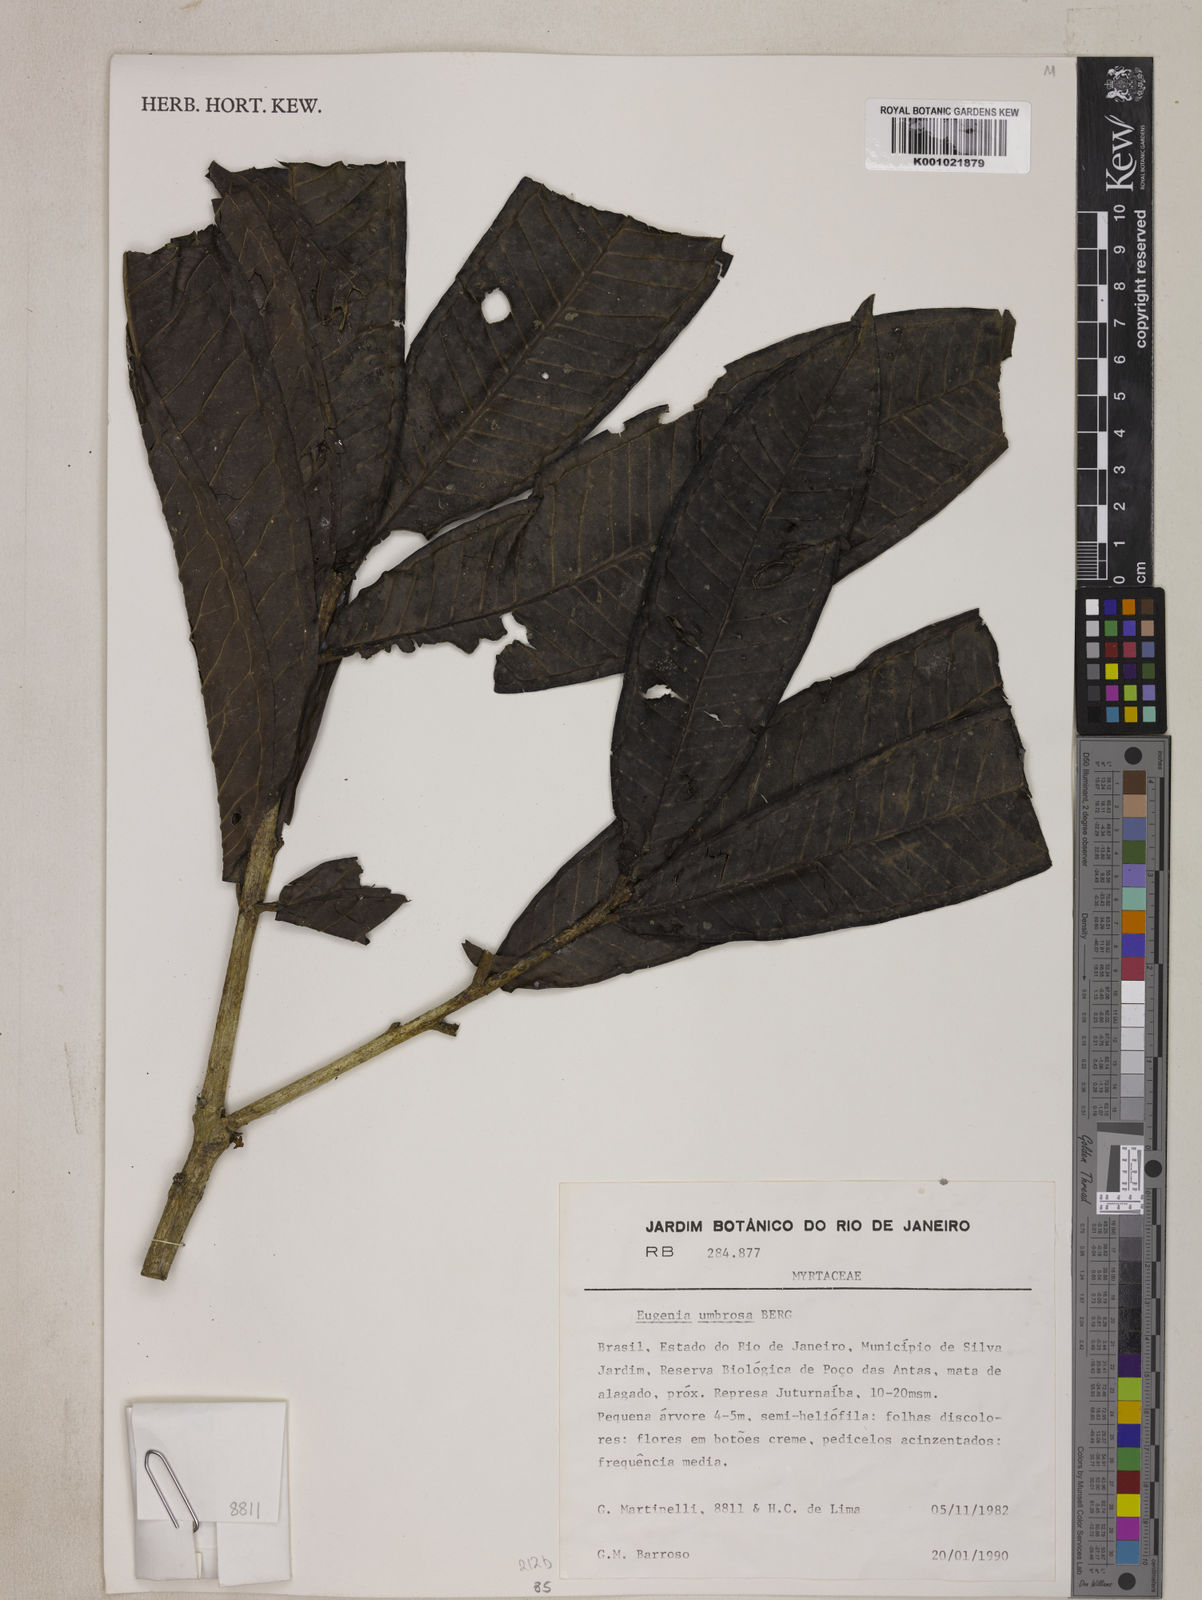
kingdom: Plantae
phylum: Tracheophyta
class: Magnoliopsida
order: Myrtales
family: Myrtaceae
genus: Eugenia
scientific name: Eugenia umbrosa
